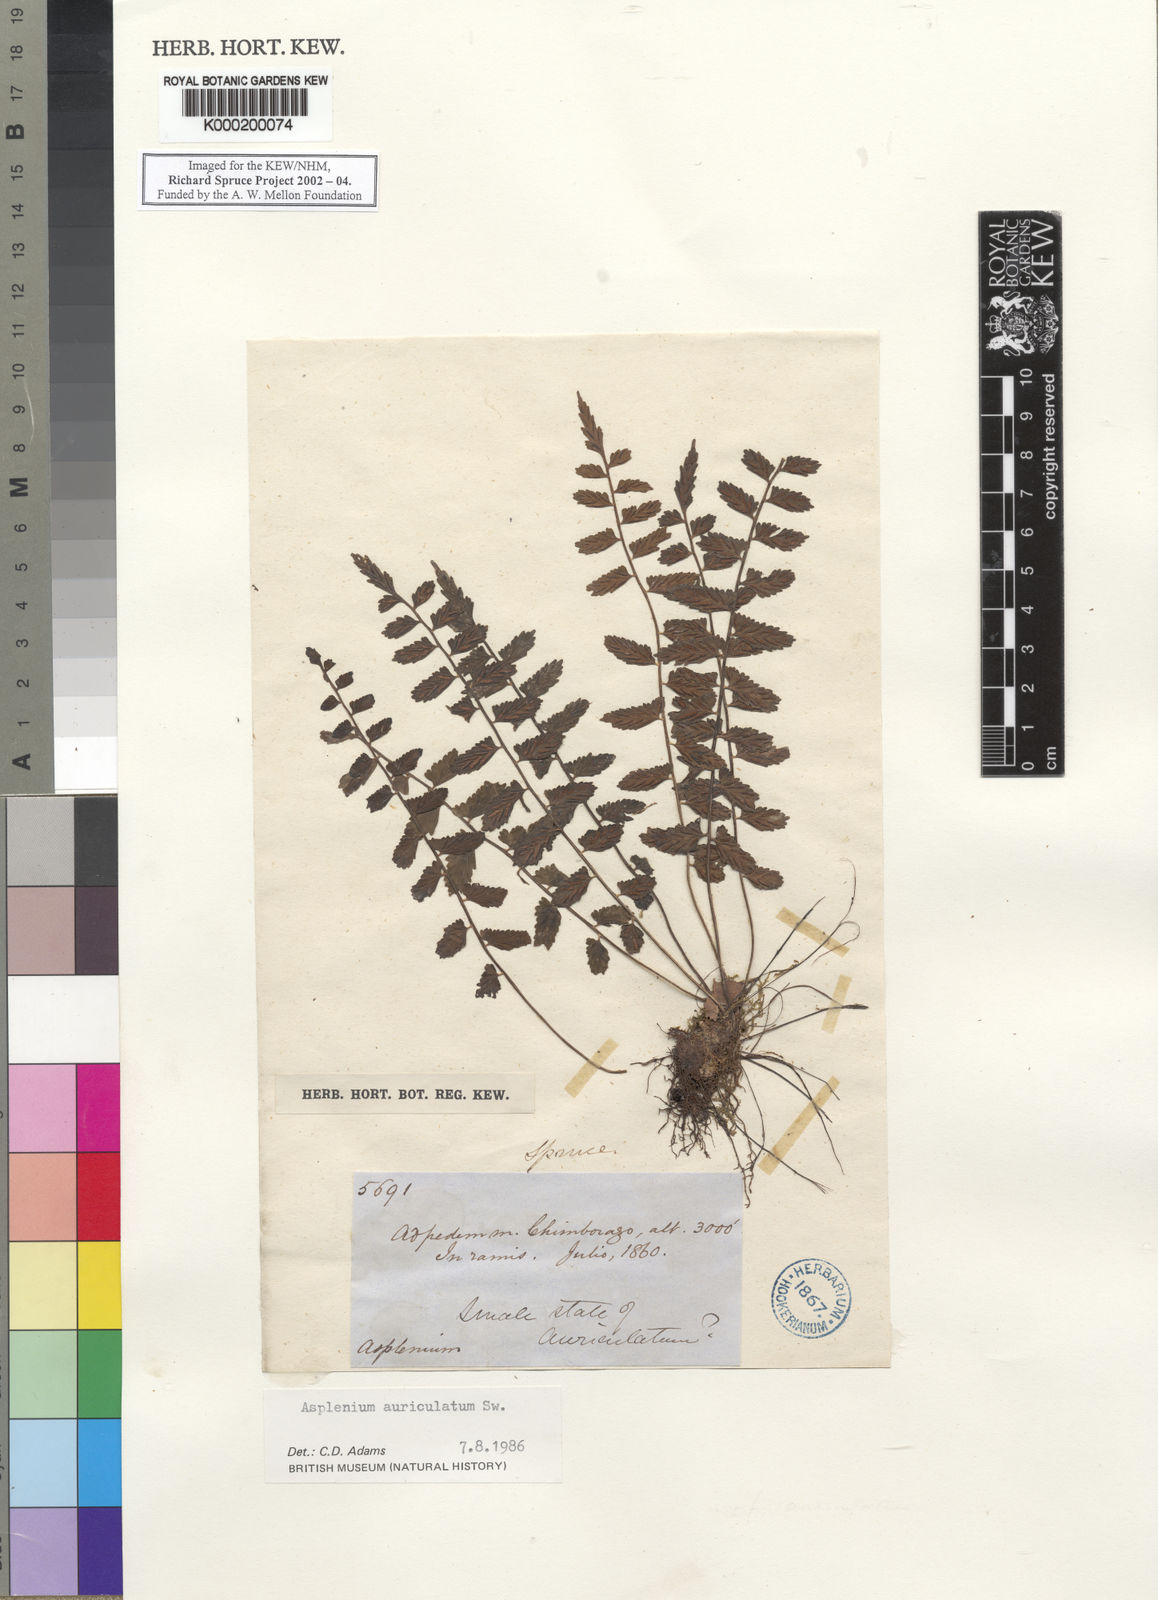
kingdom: Plantae
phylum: Tracheophyta
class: Polypodiopsida
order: Polypodiales
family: Aspleniaceae
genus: Asplenium
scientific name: Asplenium auriculatum
